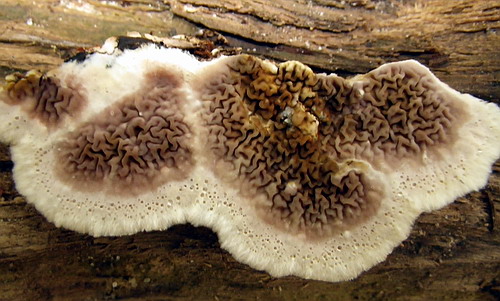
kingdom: Fungi
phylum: Basidiomycota
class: Agaricomycetes
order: Boletales
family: Serpulaceae
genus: Serpula
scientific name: Serpula himantioides
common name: tyndkødet hussvamp
